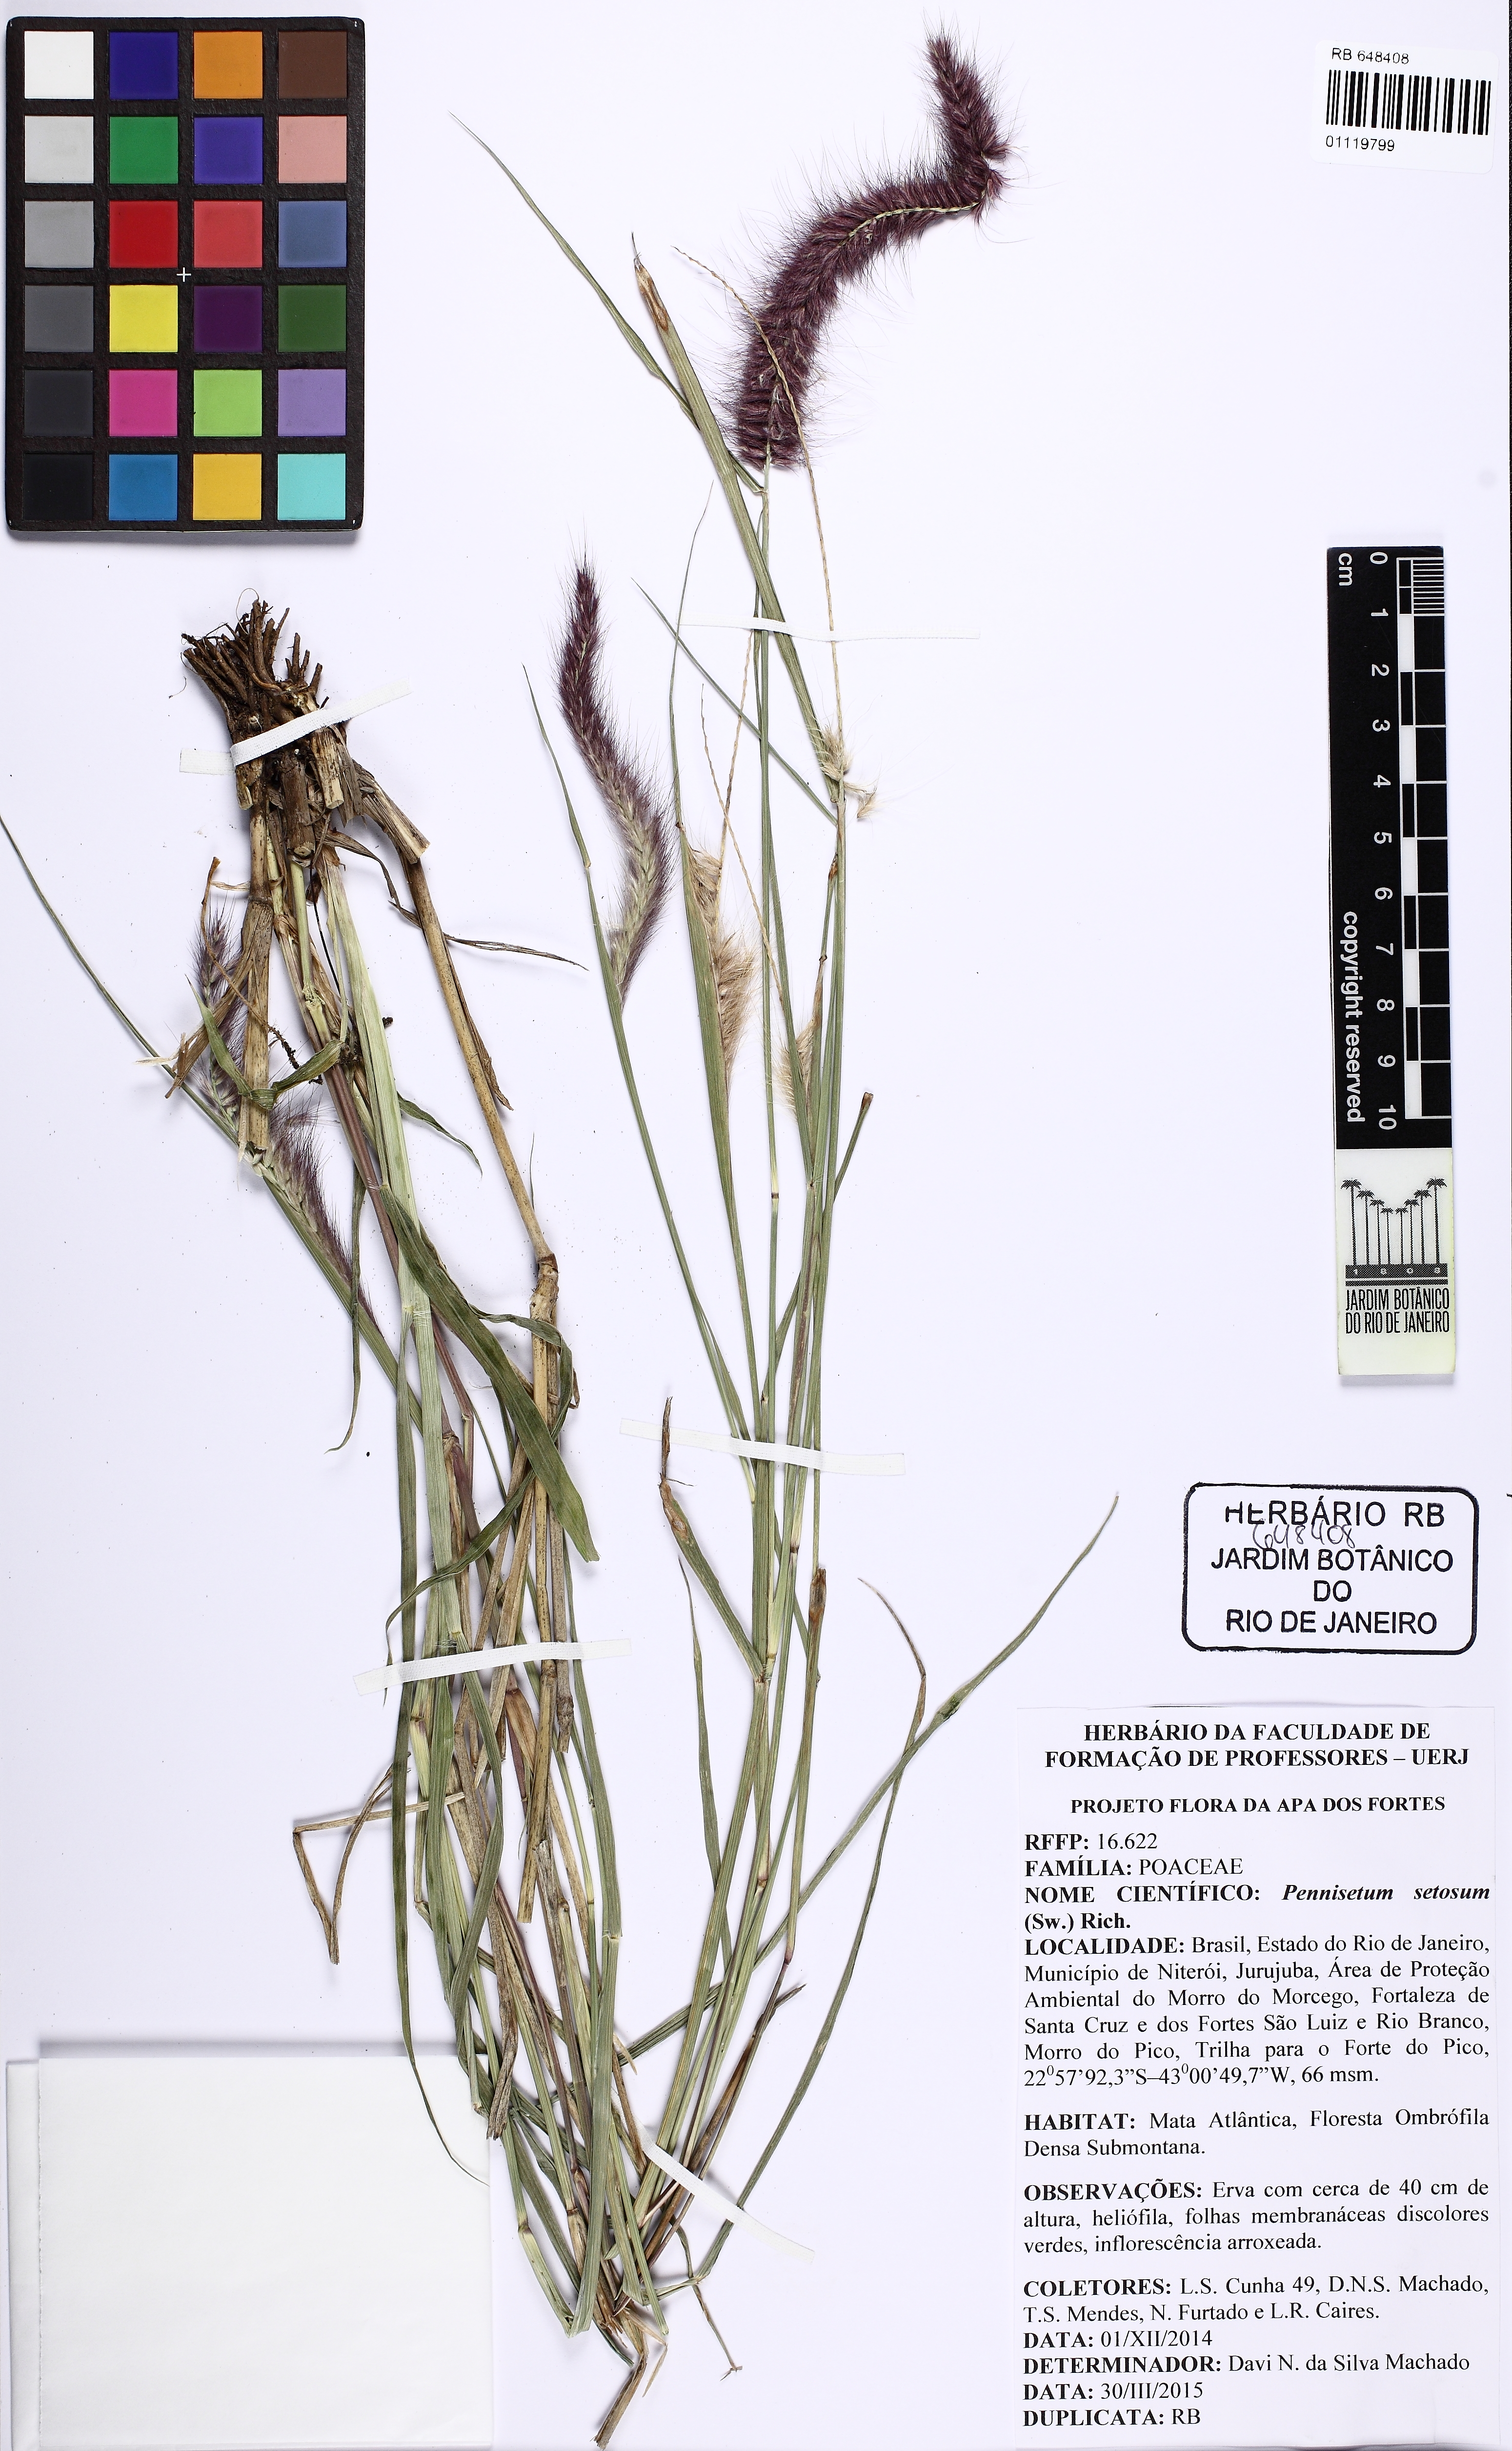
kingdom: Plantae
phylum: Tracheophyta
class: Liliopsida
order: Poales
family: Poaceae
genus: Cenchrus
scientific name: Cenchrus setosus
